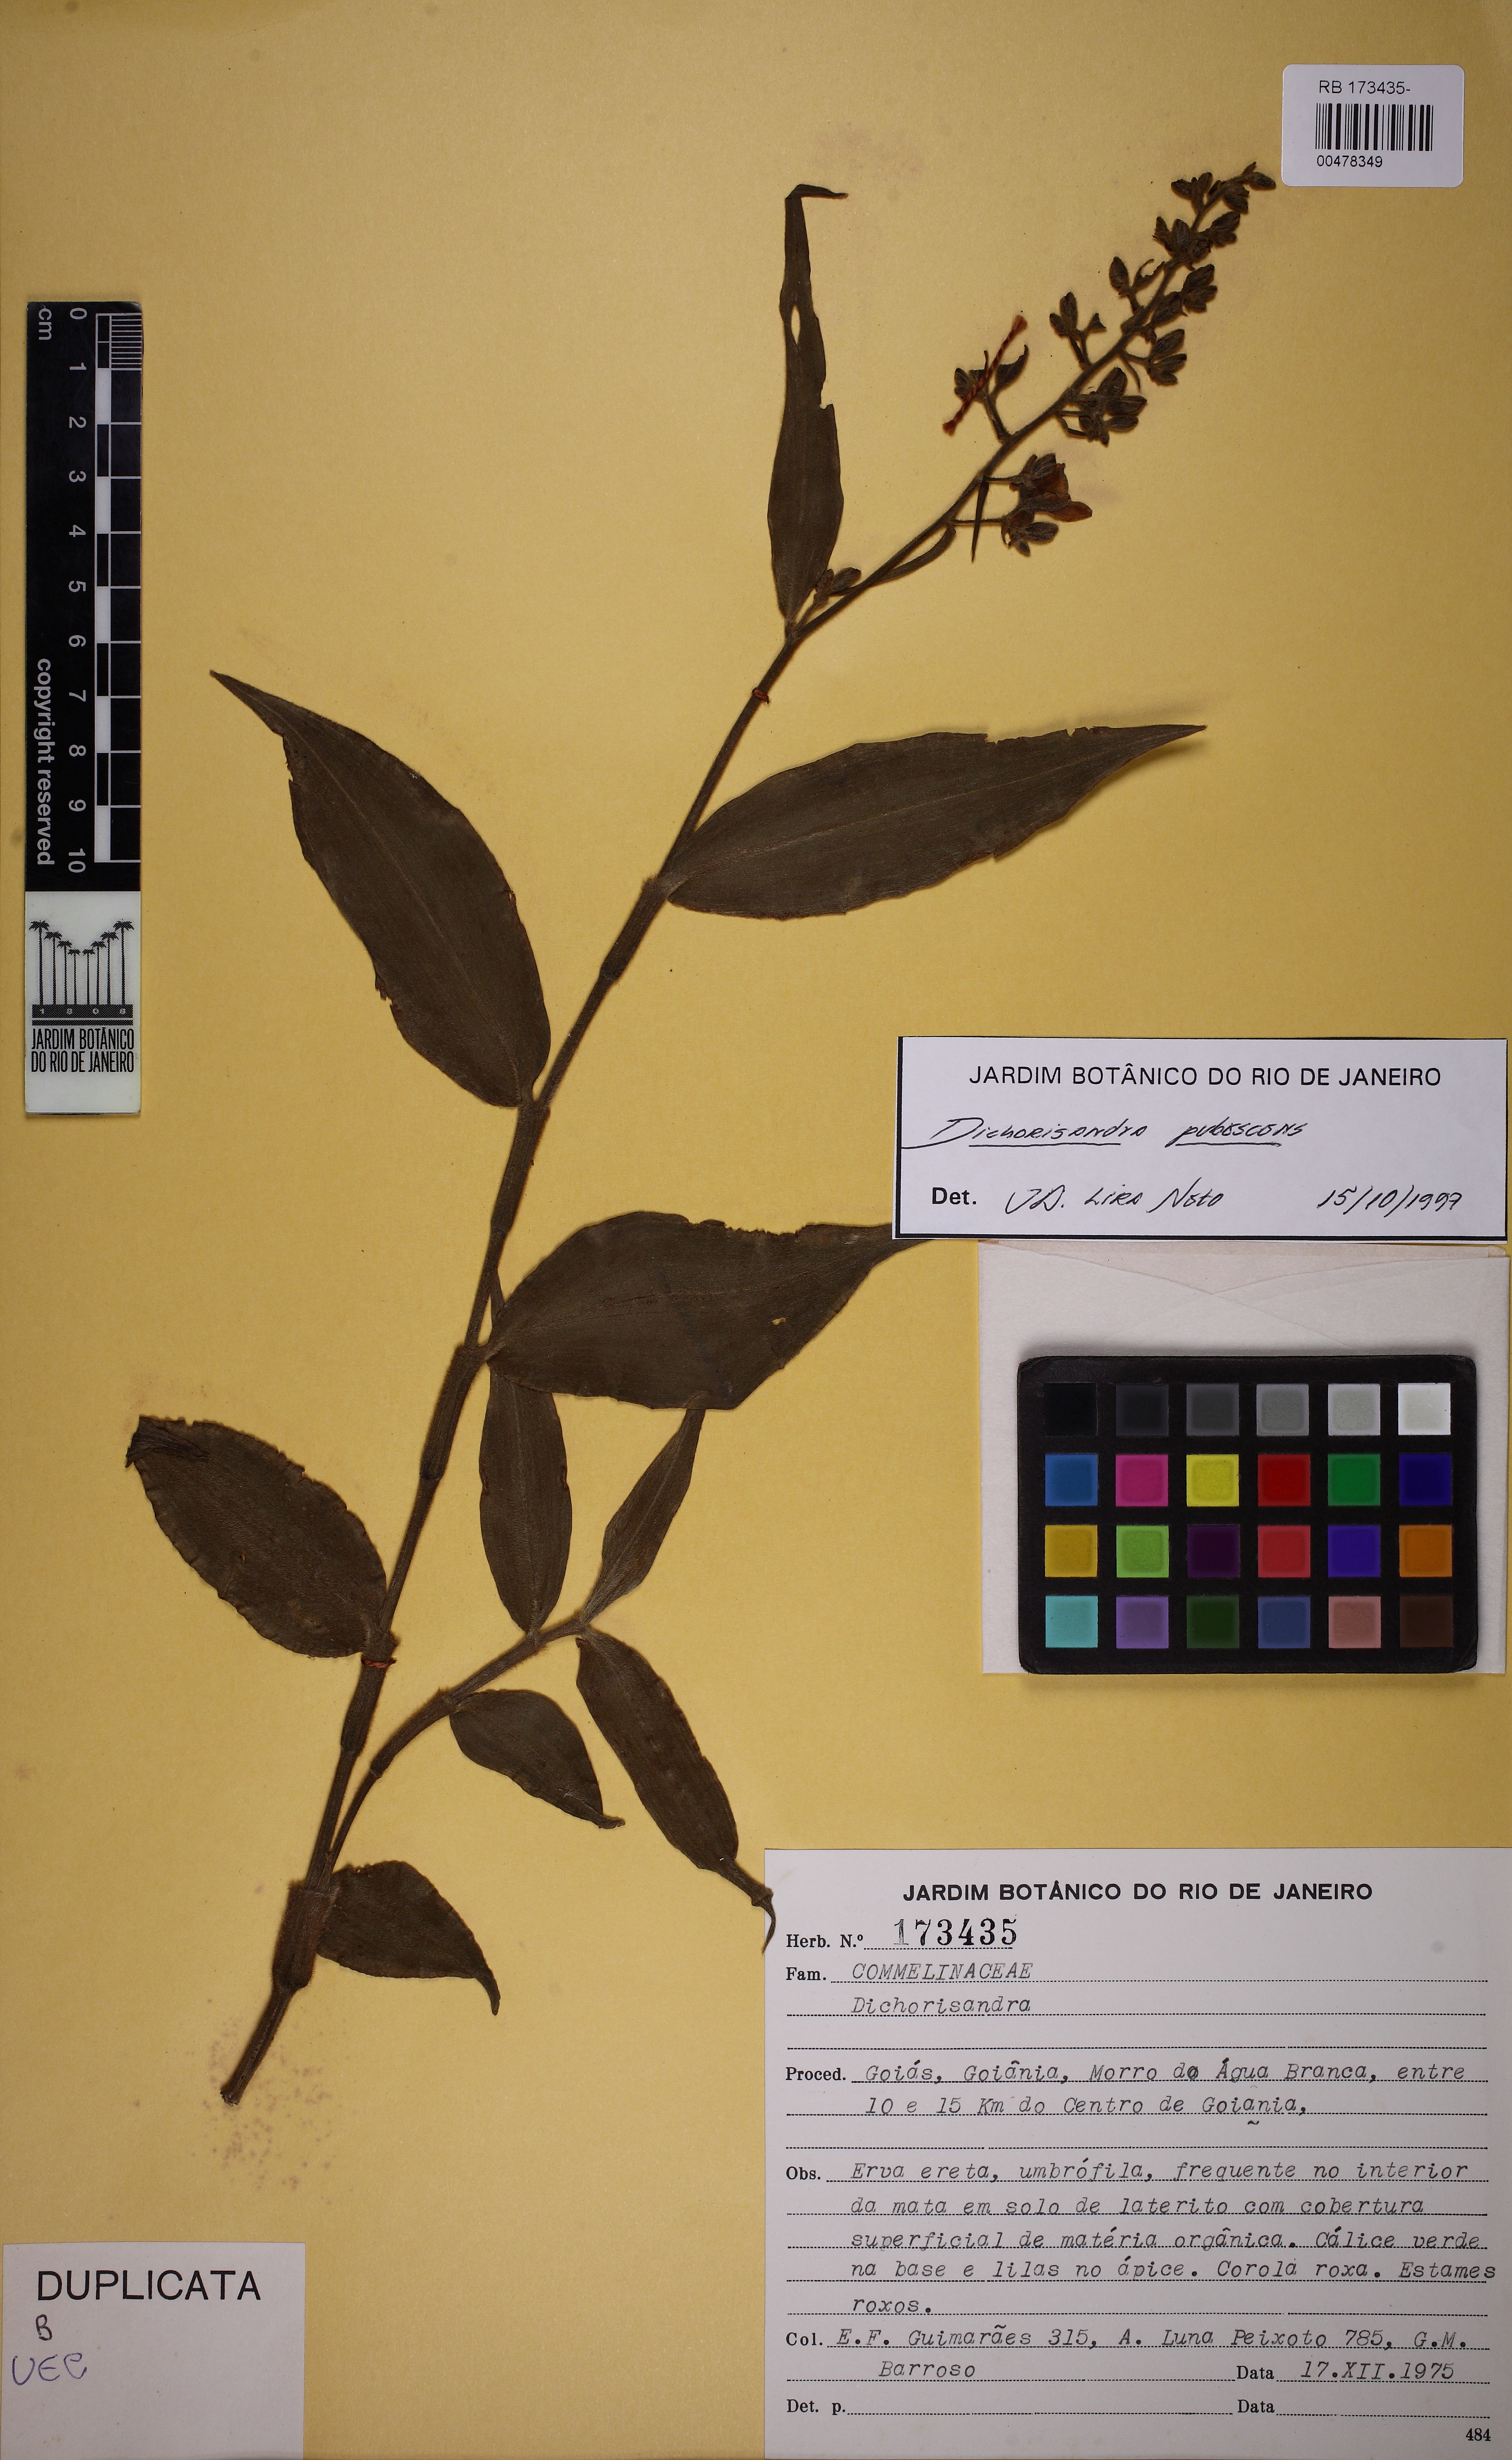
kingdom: Plantae
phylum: Tracheophyta
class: Liliopsida
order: Commelinales
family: Commelinaceae
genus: Dichorisandra
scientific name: Dichorisandra pubescens
